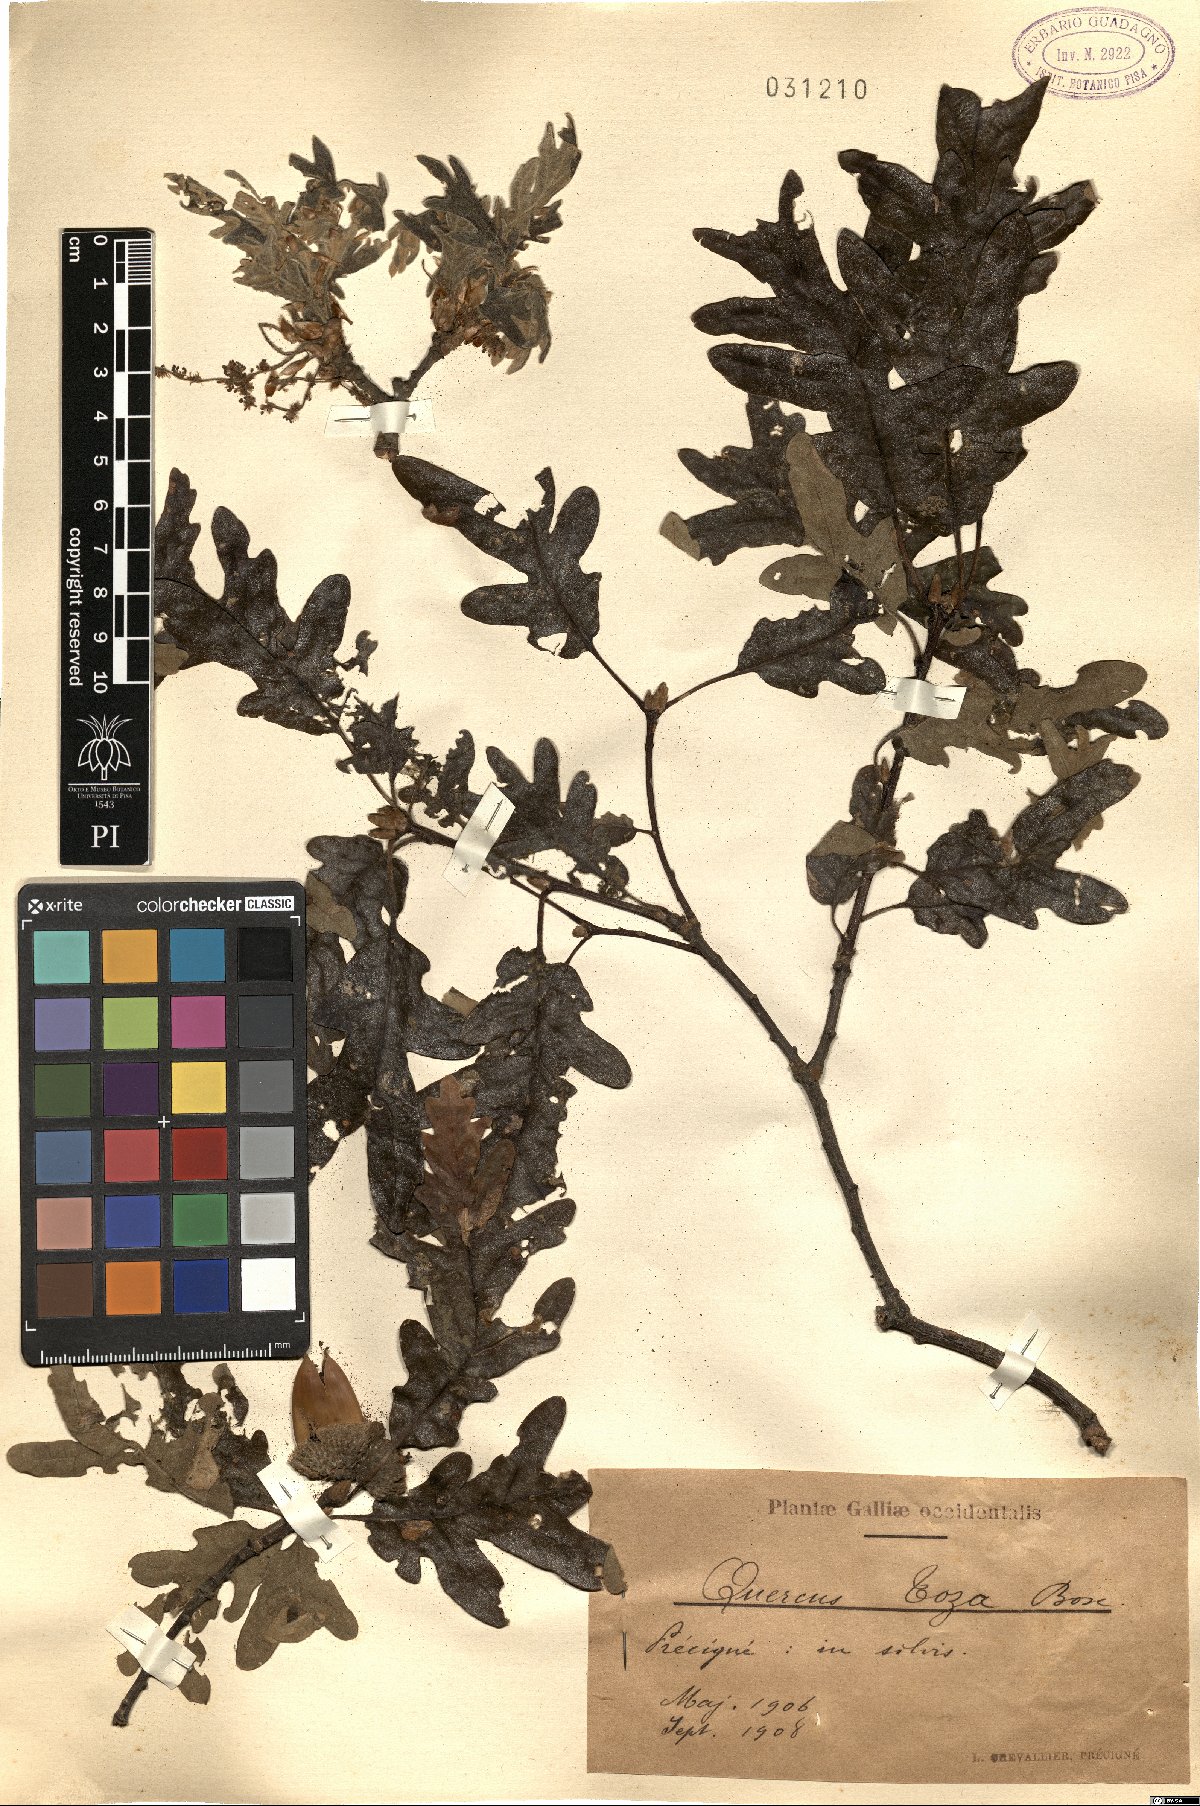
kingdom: Plantae
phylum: Tracheophyta
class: Magnoliopsida
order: Fagales
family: Fagaceae
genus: Quercus
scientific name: Quercus pyrenaica
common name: Pyrenean oak
